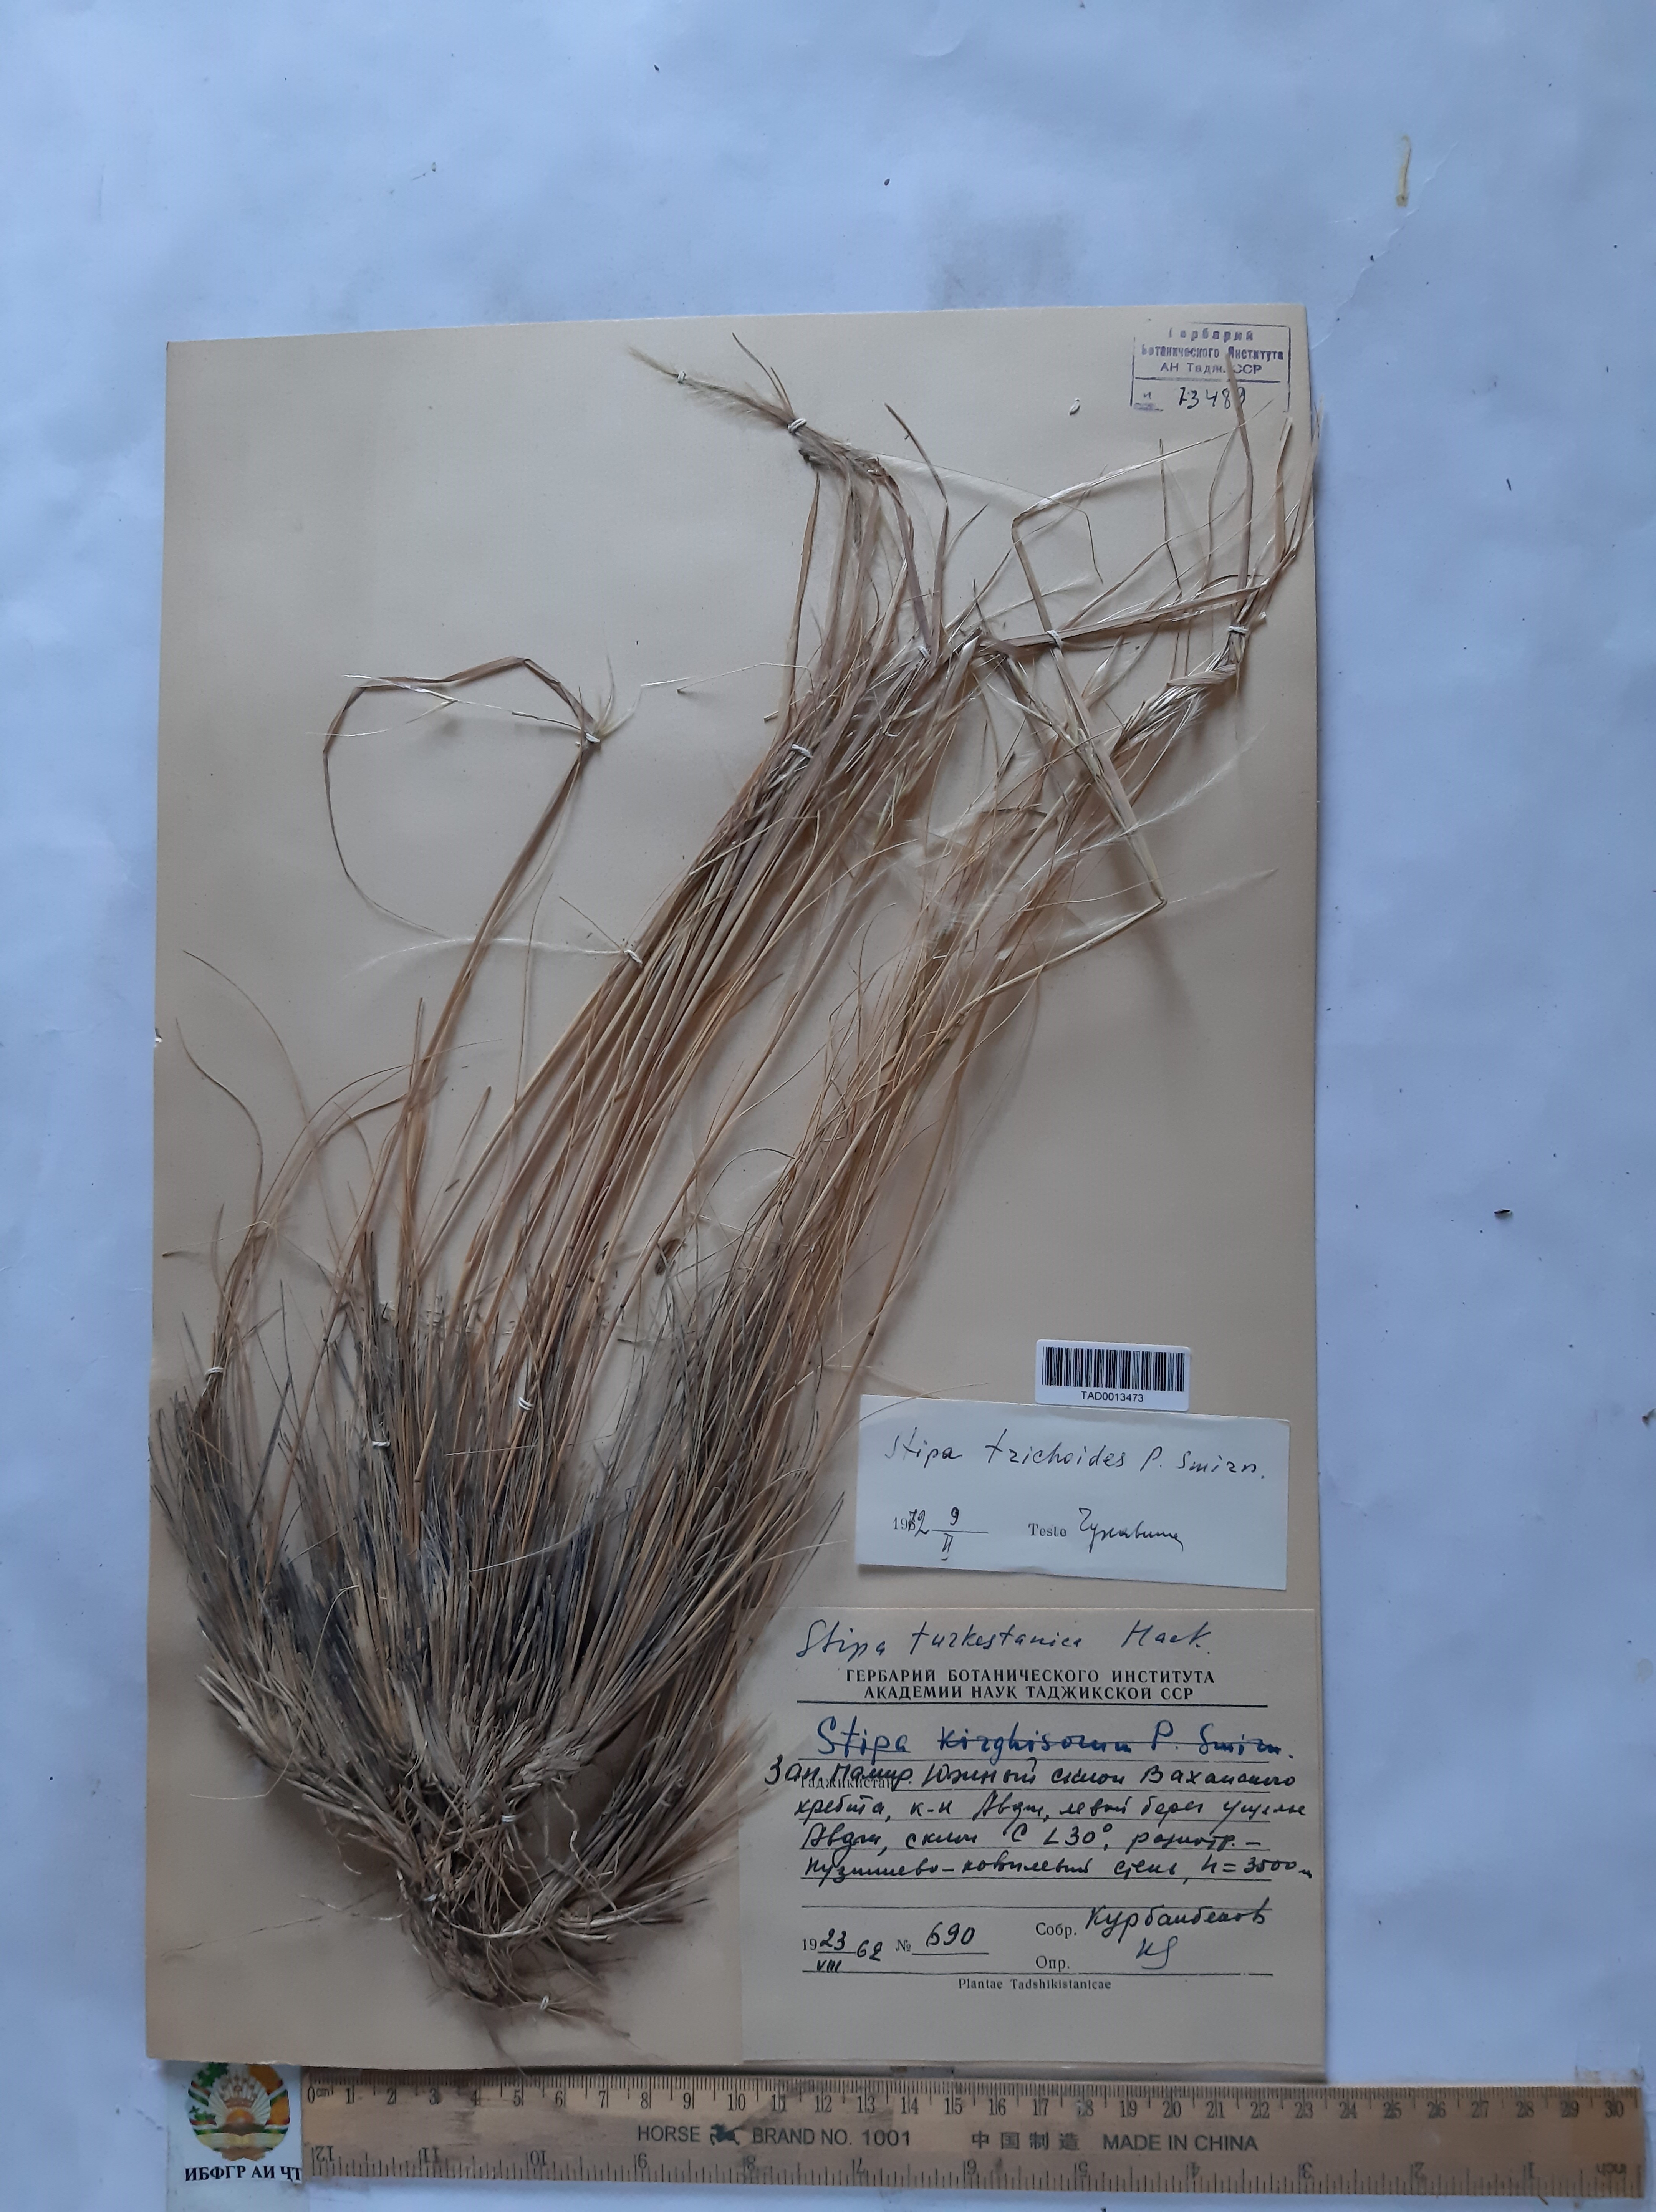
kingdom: Plantae
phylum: Tracheophyta
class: Liliopsida
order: Poales
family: Poaceae
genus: Stipa
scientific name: Stipa trichoides
